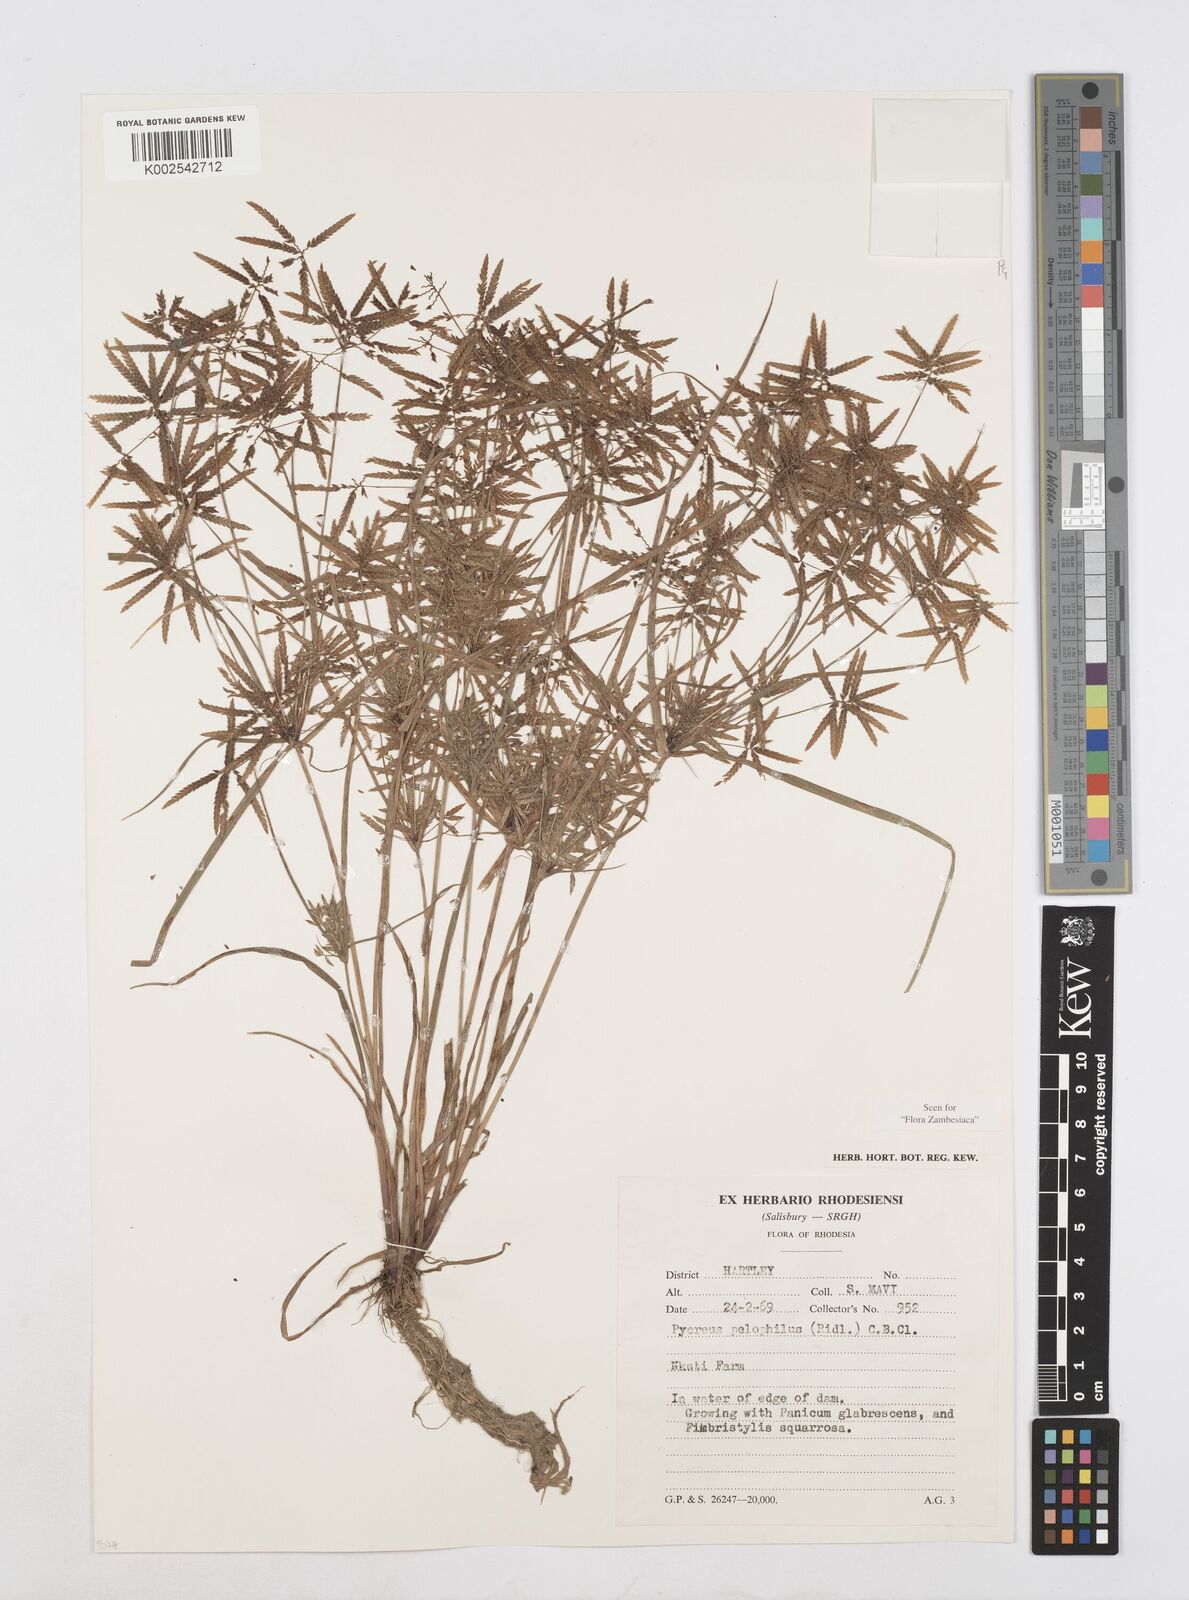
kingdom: Plantae
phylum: Tracheophyta
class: Liliopsida
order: Poales
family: Cyperaceae
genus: Cyperus
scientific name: Cyperus pelophilus
